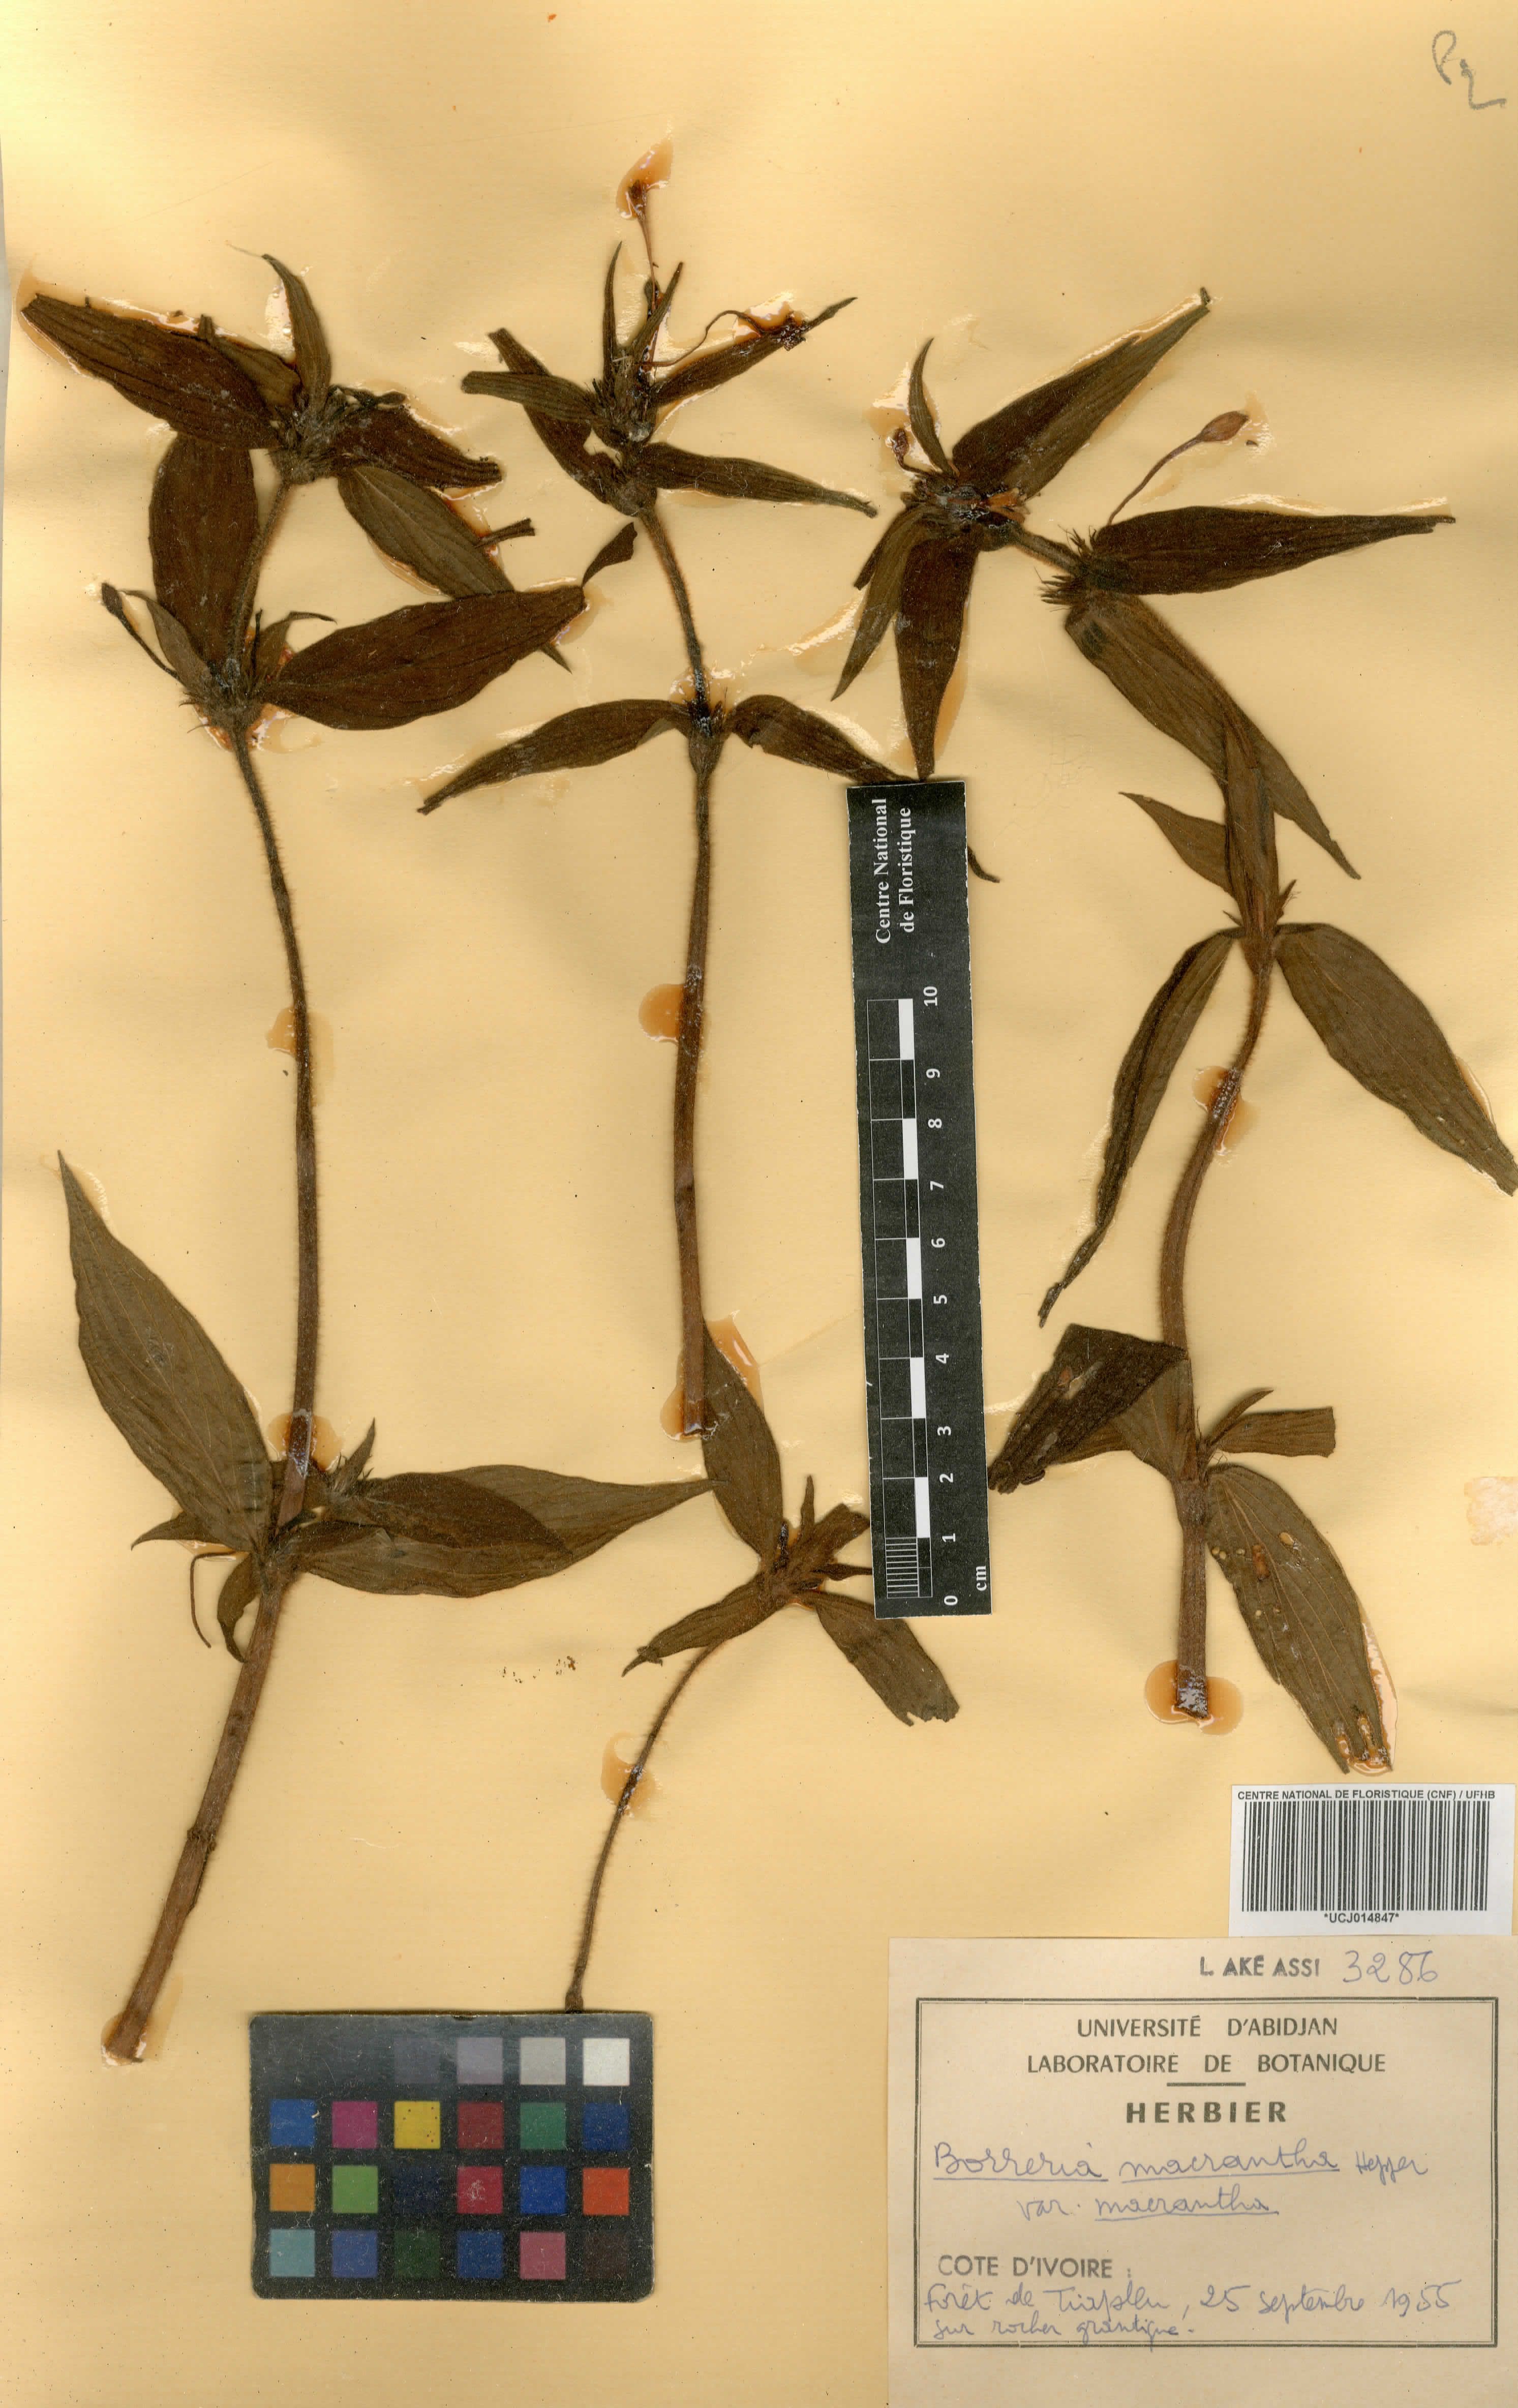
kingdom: Plantae
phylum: Tracheophyta
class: Magnoliopsida
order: Gentianales
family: Rubiaceae
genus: Spermacoce
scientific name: Spermacoce ivorensis
